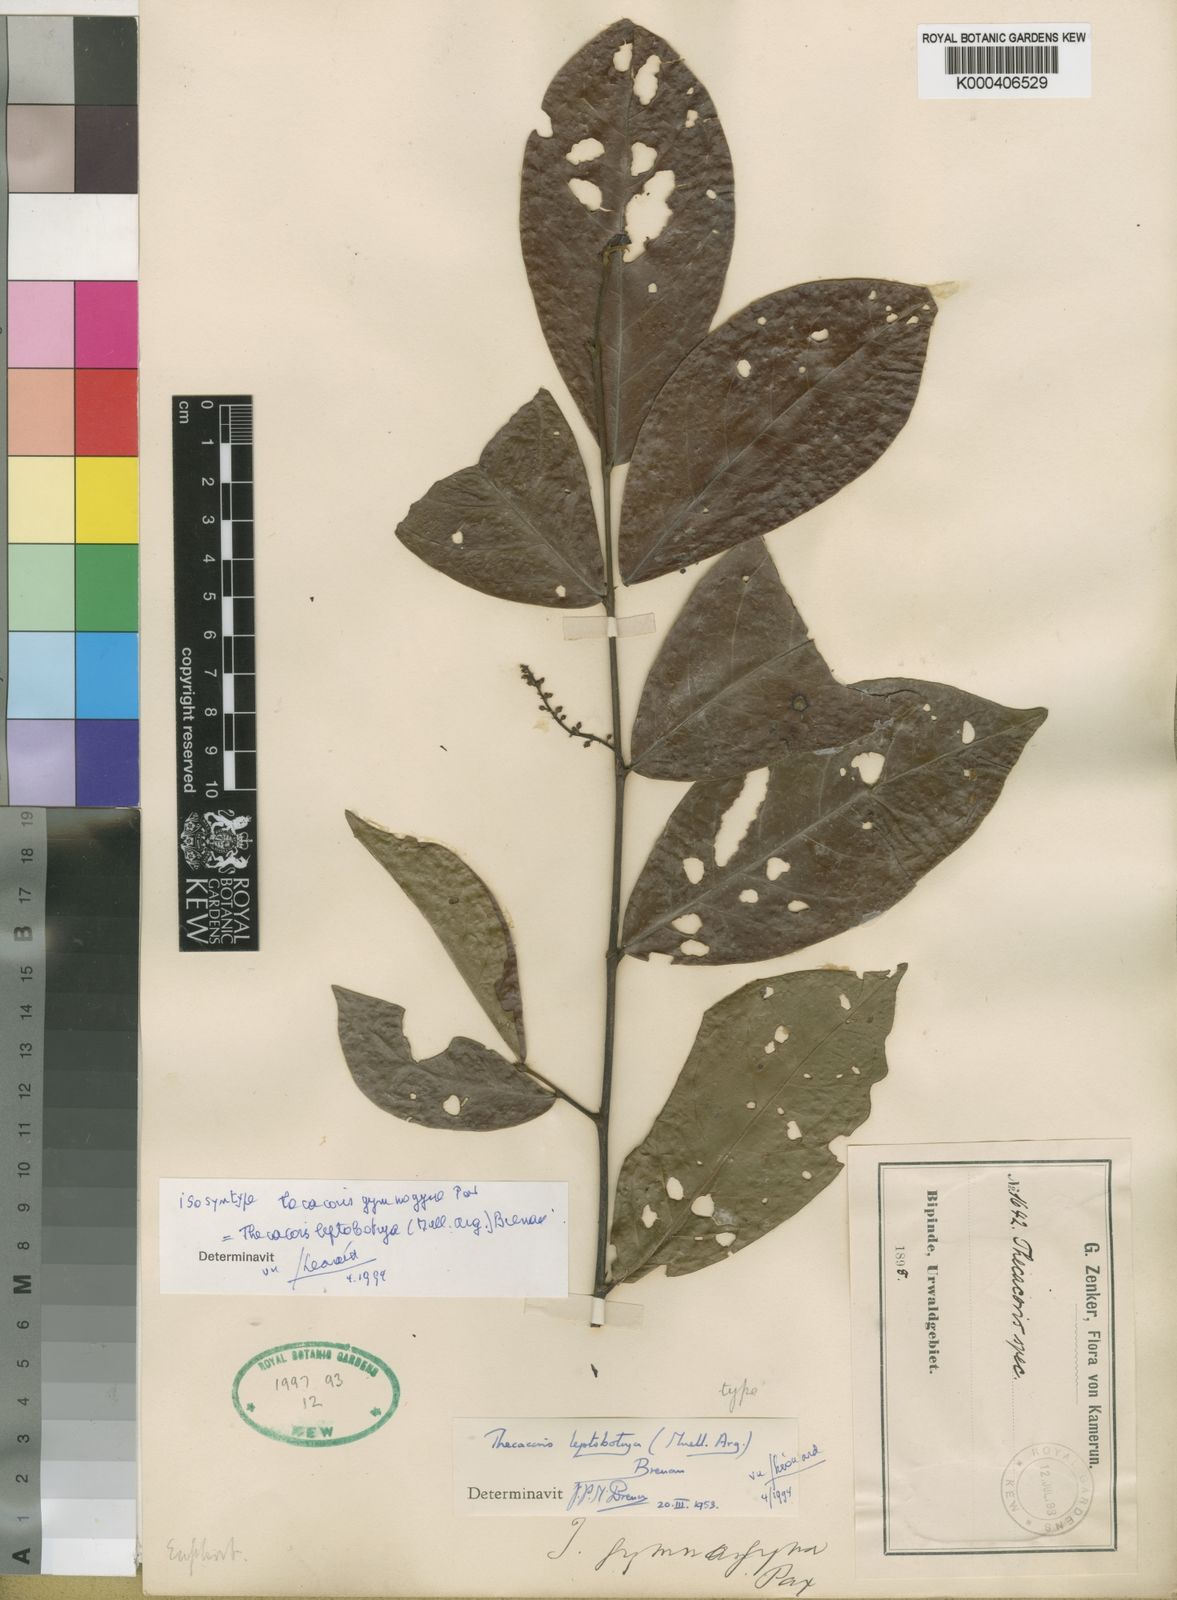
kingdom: Plantae
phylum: Tracheophyta
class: Magnoliopsida
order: Malpighiales
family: Phyllanthaceae
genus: Thecacoris
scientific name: Thecacoris
